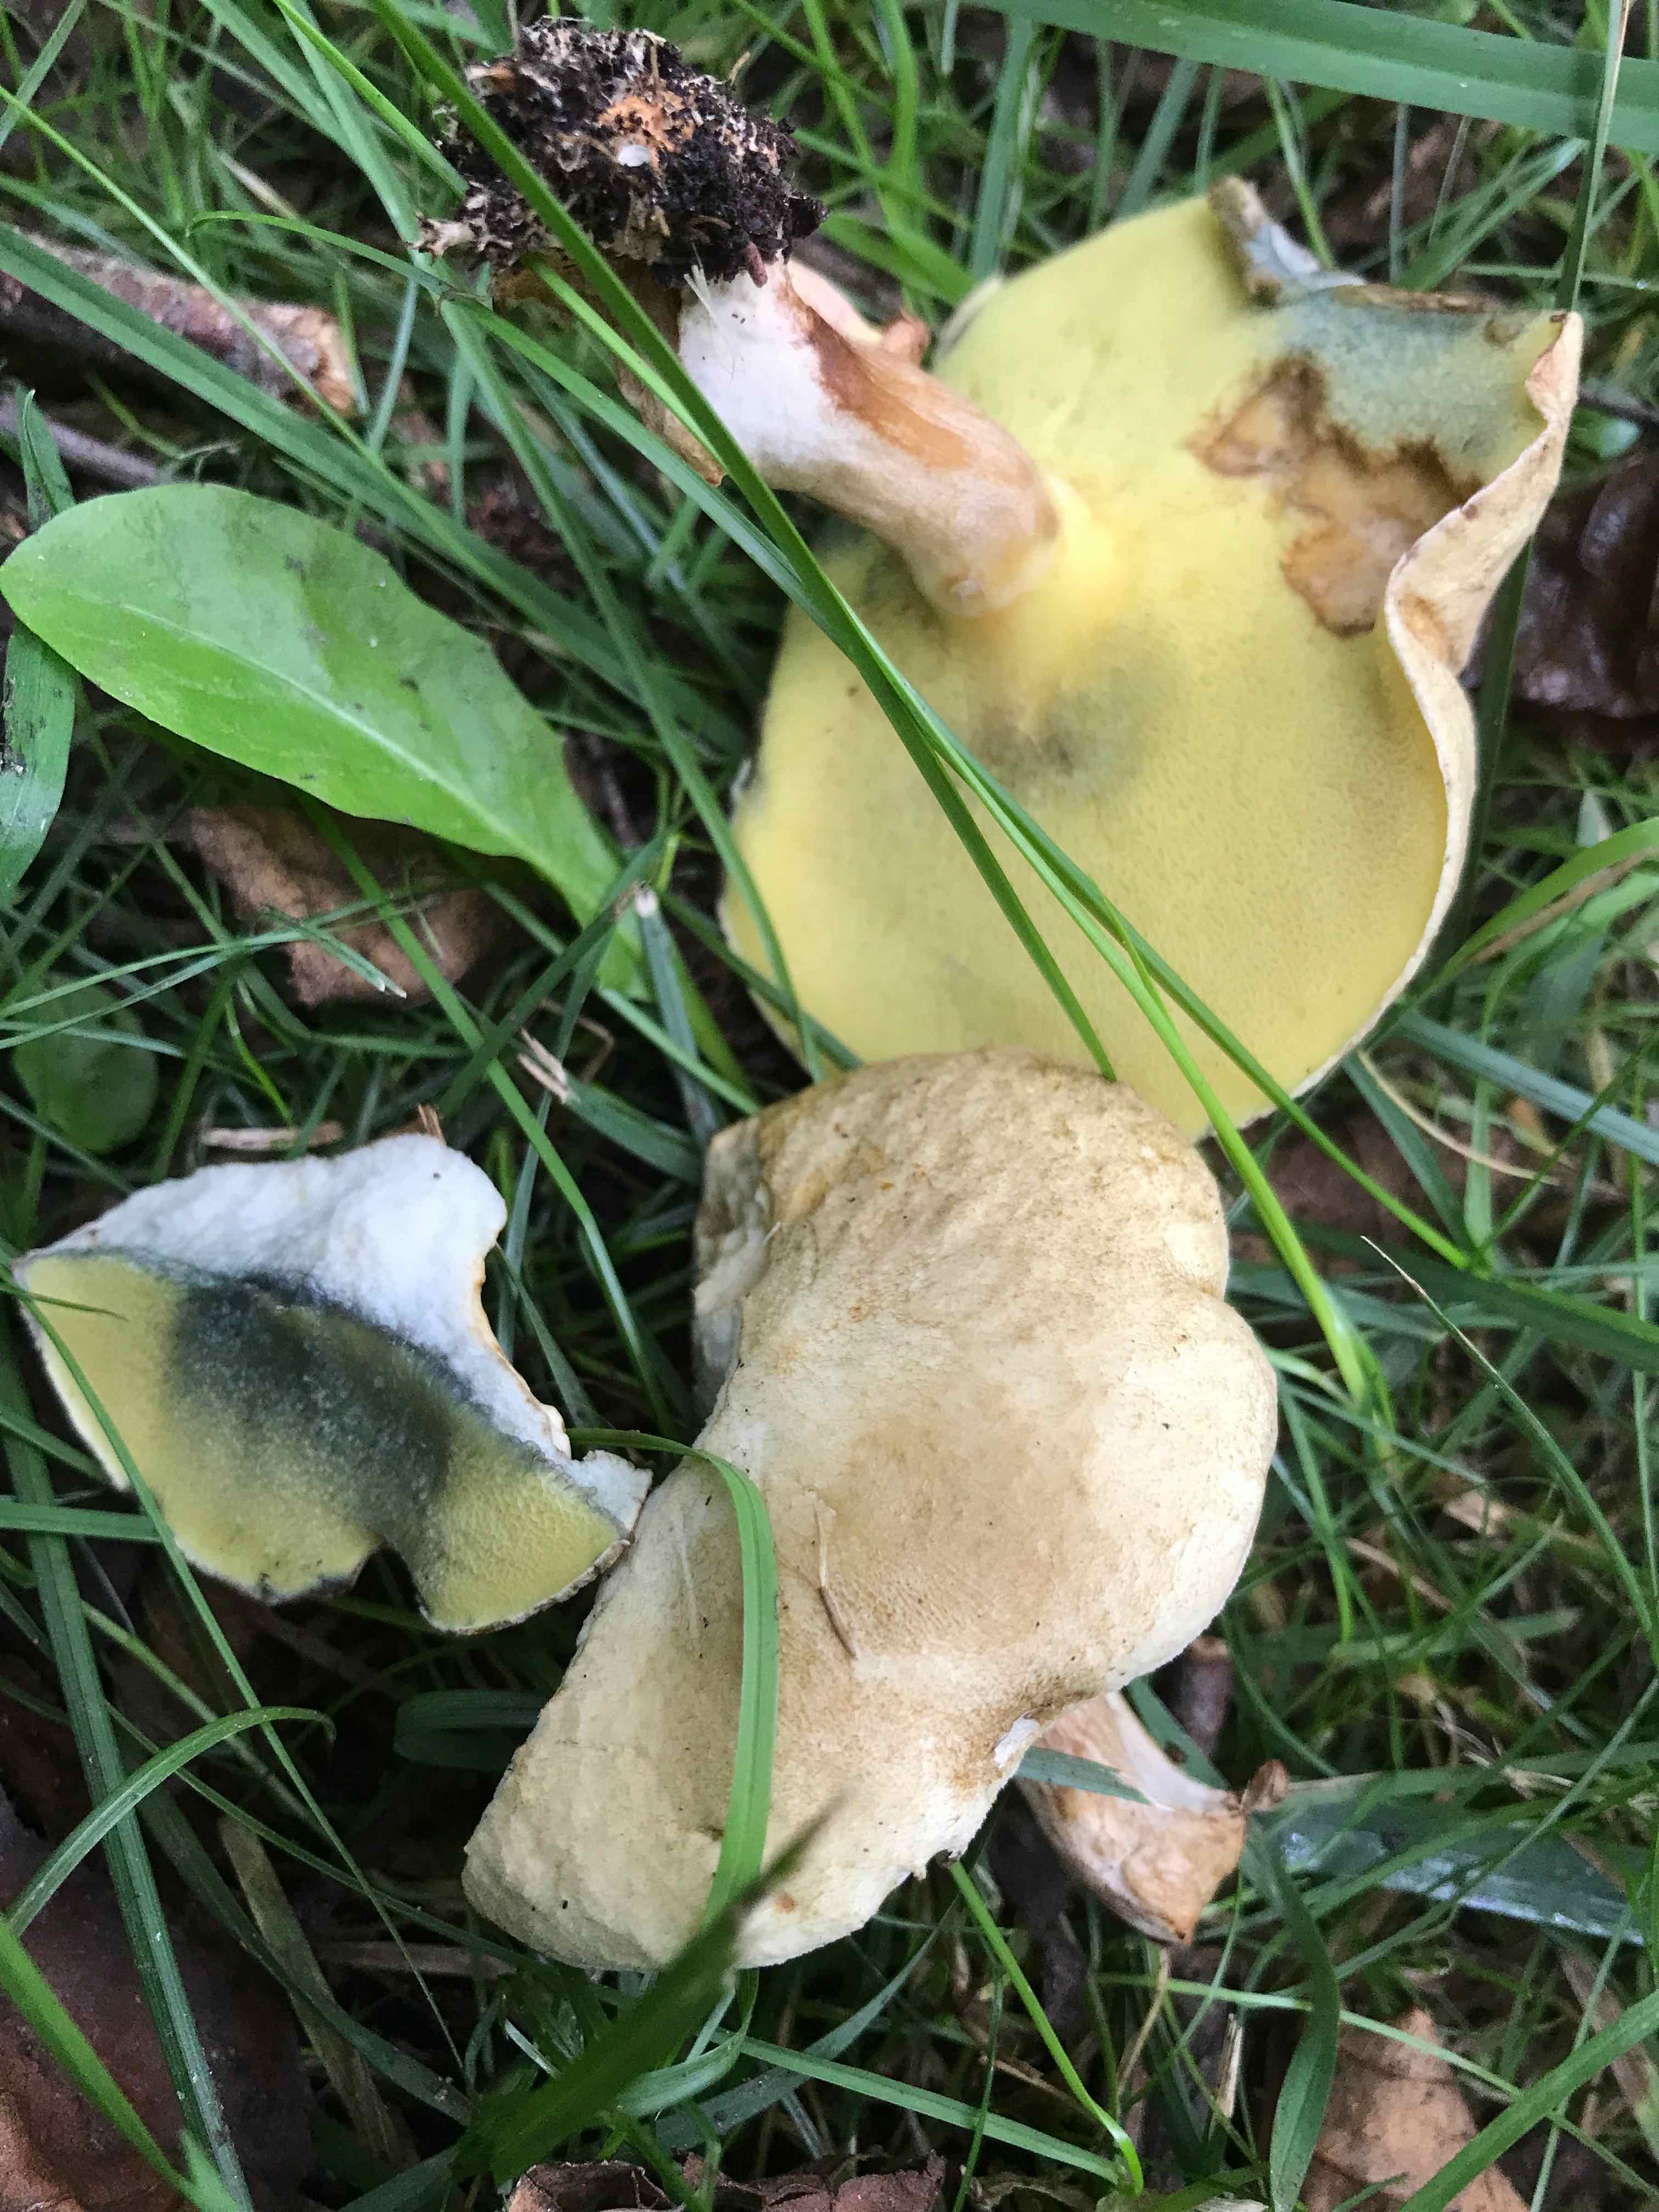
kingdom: Fungi
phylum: Basidiomycota
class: Agaricomycetes
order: Boletales
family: Paxillaceae
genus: Gyrodon
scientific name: Gyrodon lividus
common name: ellerørhat
